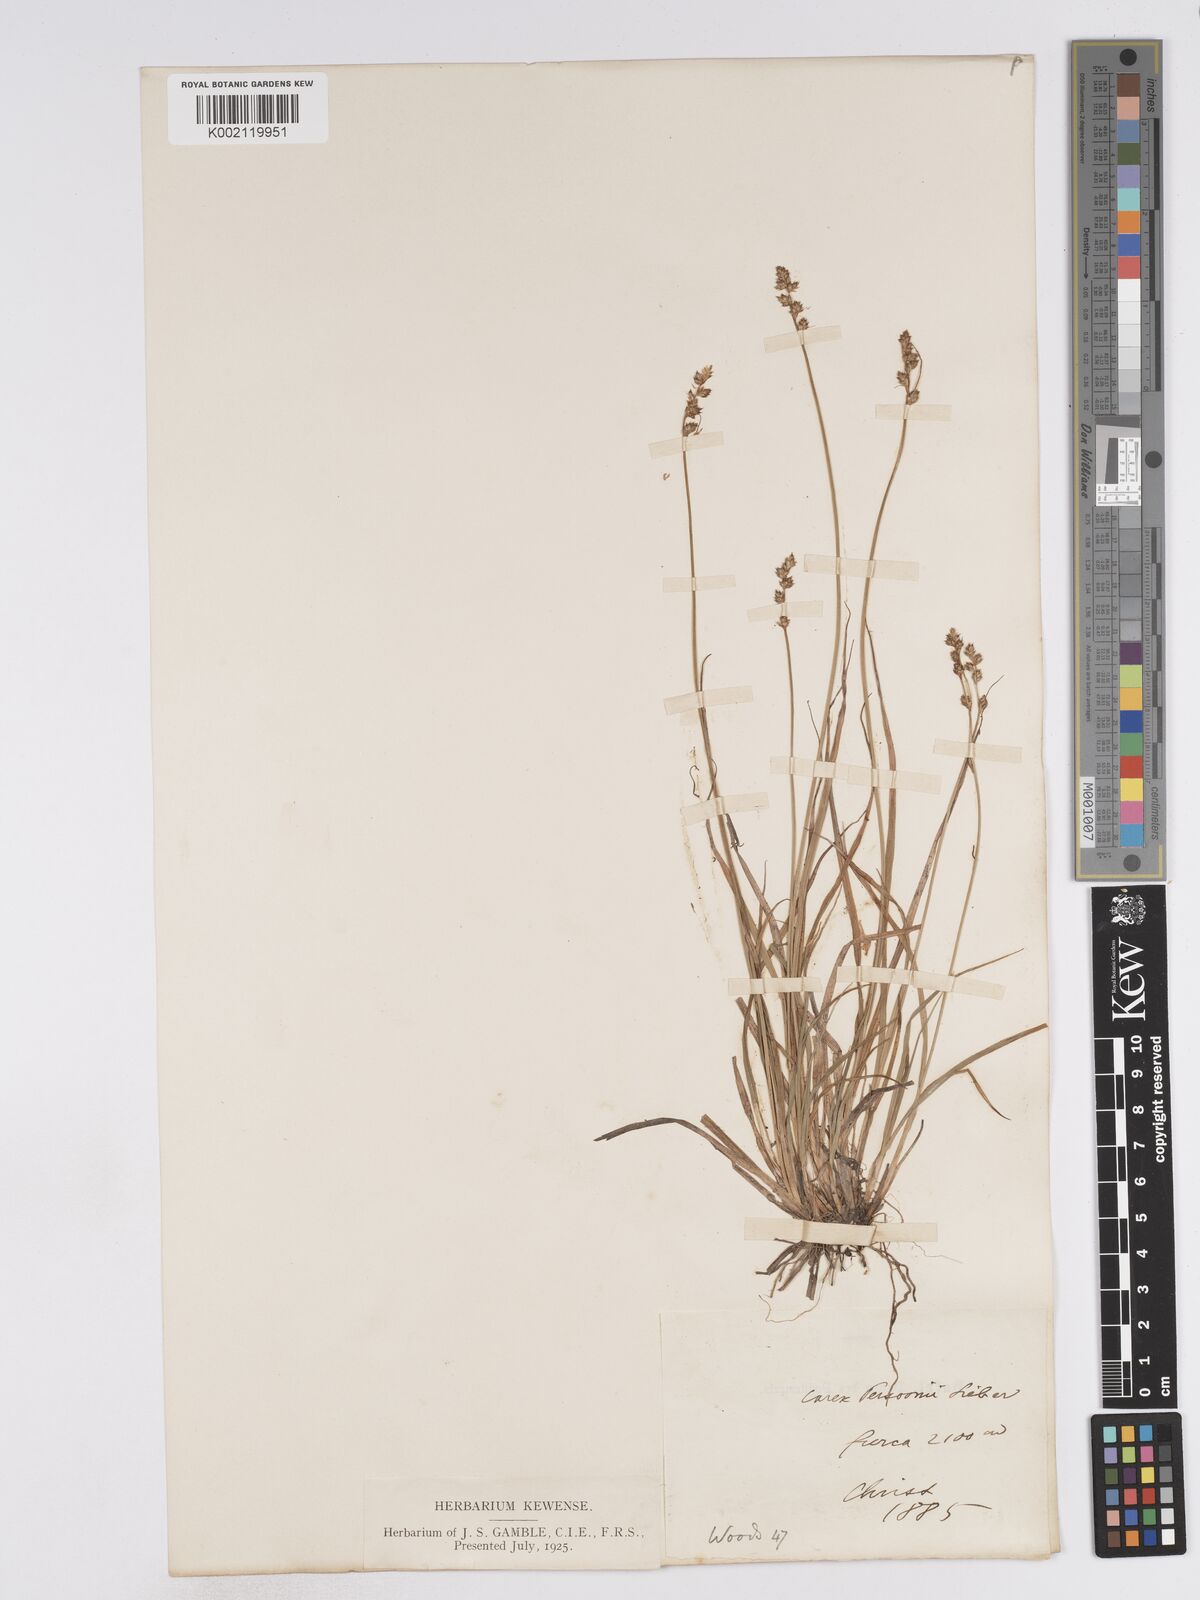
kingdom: Plantae
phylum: Tracheophyta
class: Liliopsida
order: Poales
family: Cyperaceae
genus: Carex
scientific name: Carex canescens
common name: White sedge
